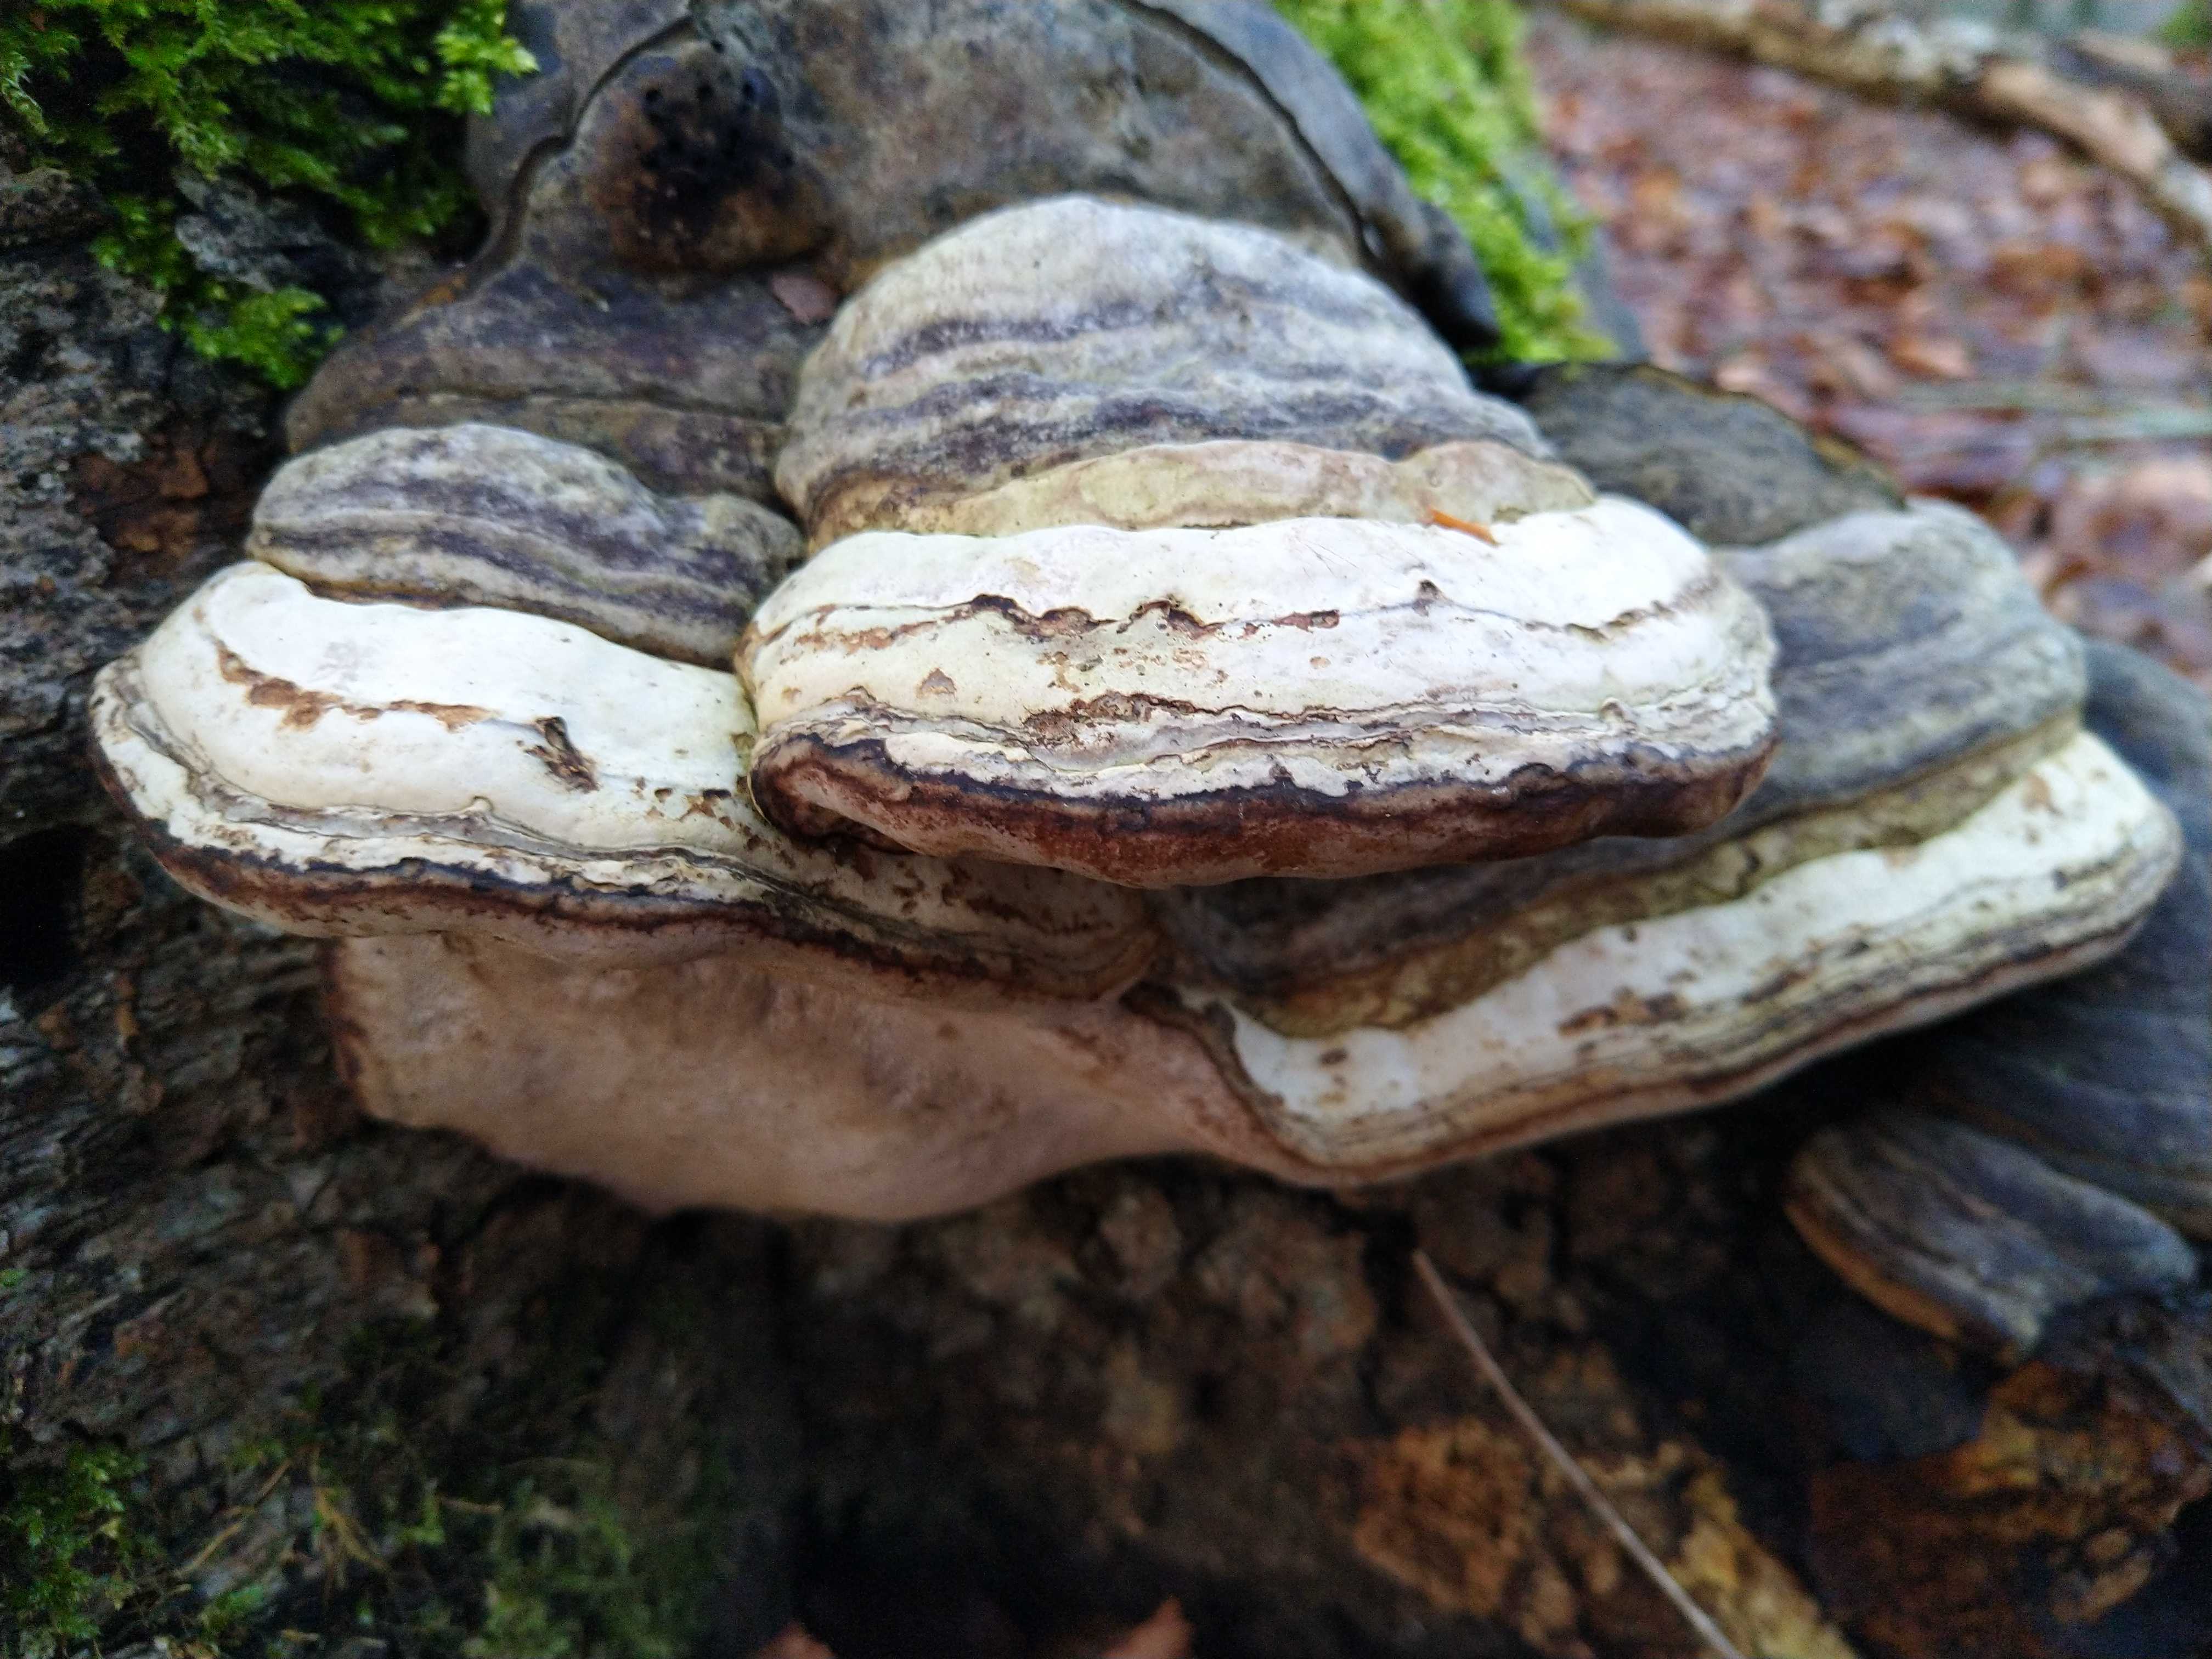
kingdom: Fungi
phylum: Basidiomycota
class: Agaricomycetes
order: Polyporales
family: Polyporaceae
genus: Fomes
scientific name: Fomes fomentarius
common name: tøndersvamp
